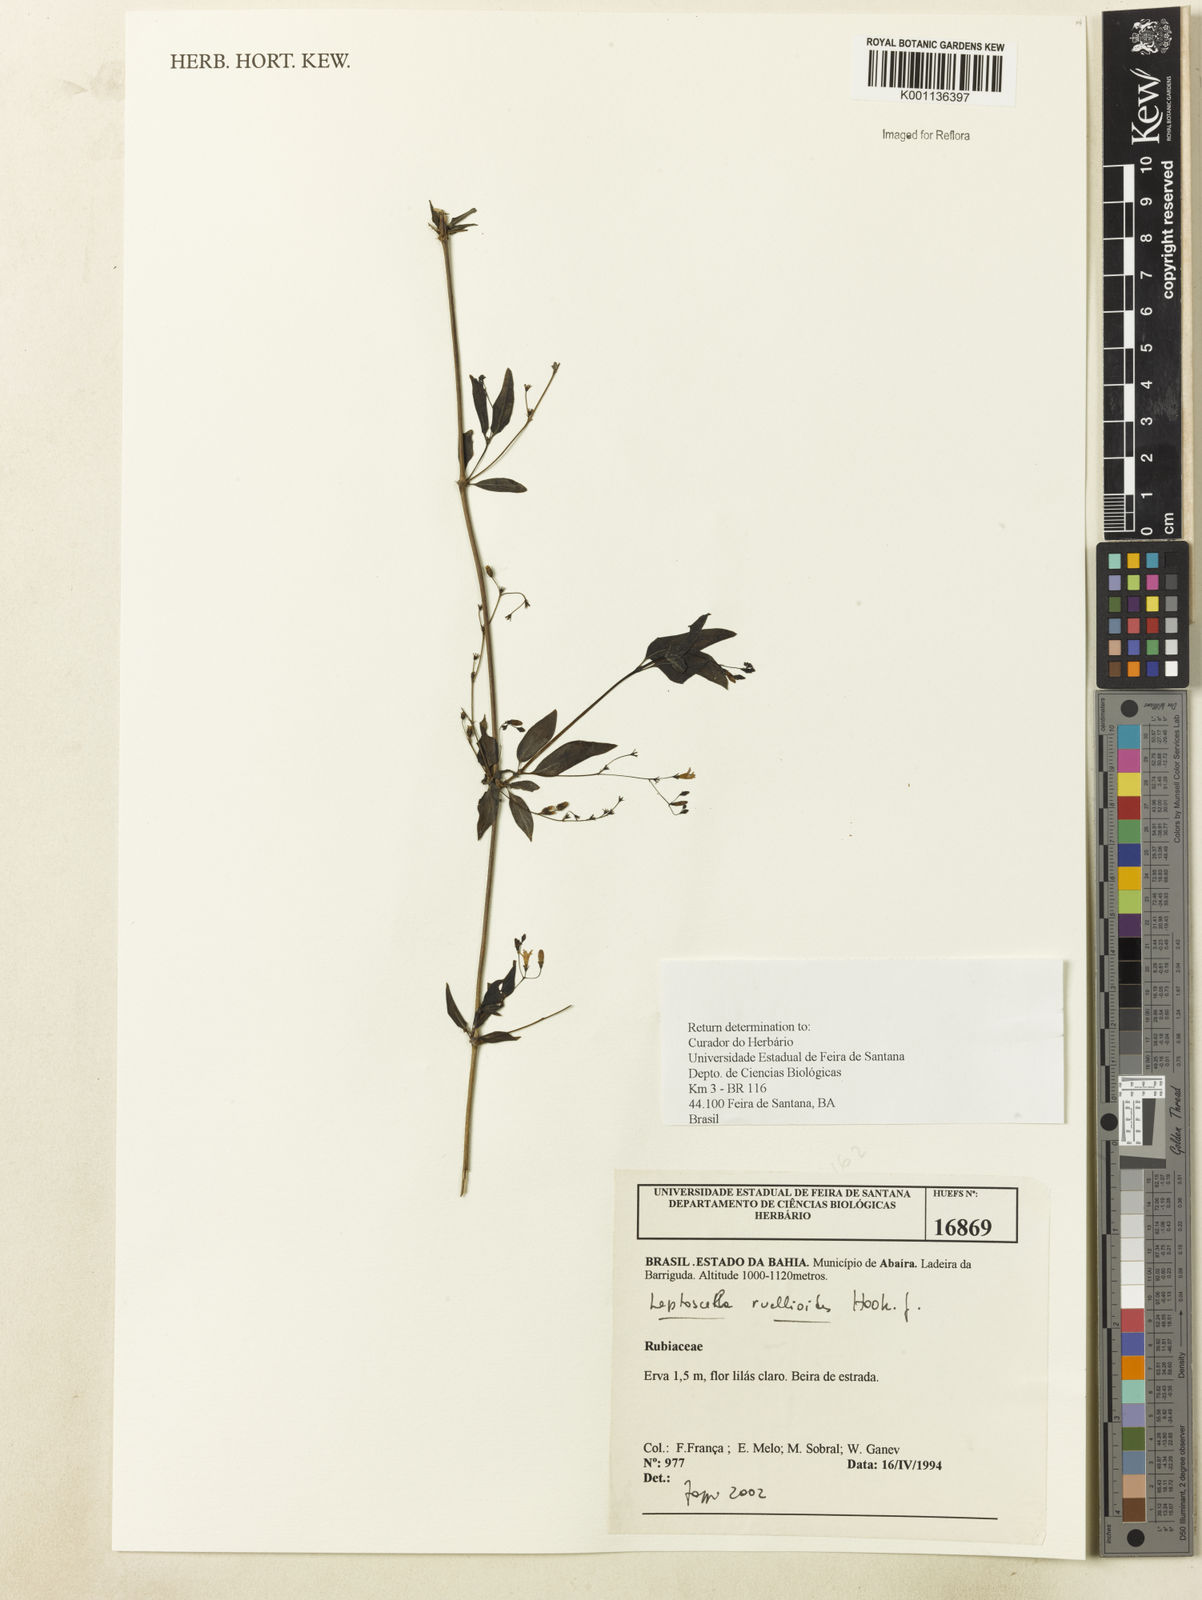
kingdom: Plantae
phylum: Tracheophyta
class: Magnoliopsida
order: Gentianales
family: Rubiaceae
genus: Leptoscela
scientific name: Leptoscela ruellioides
